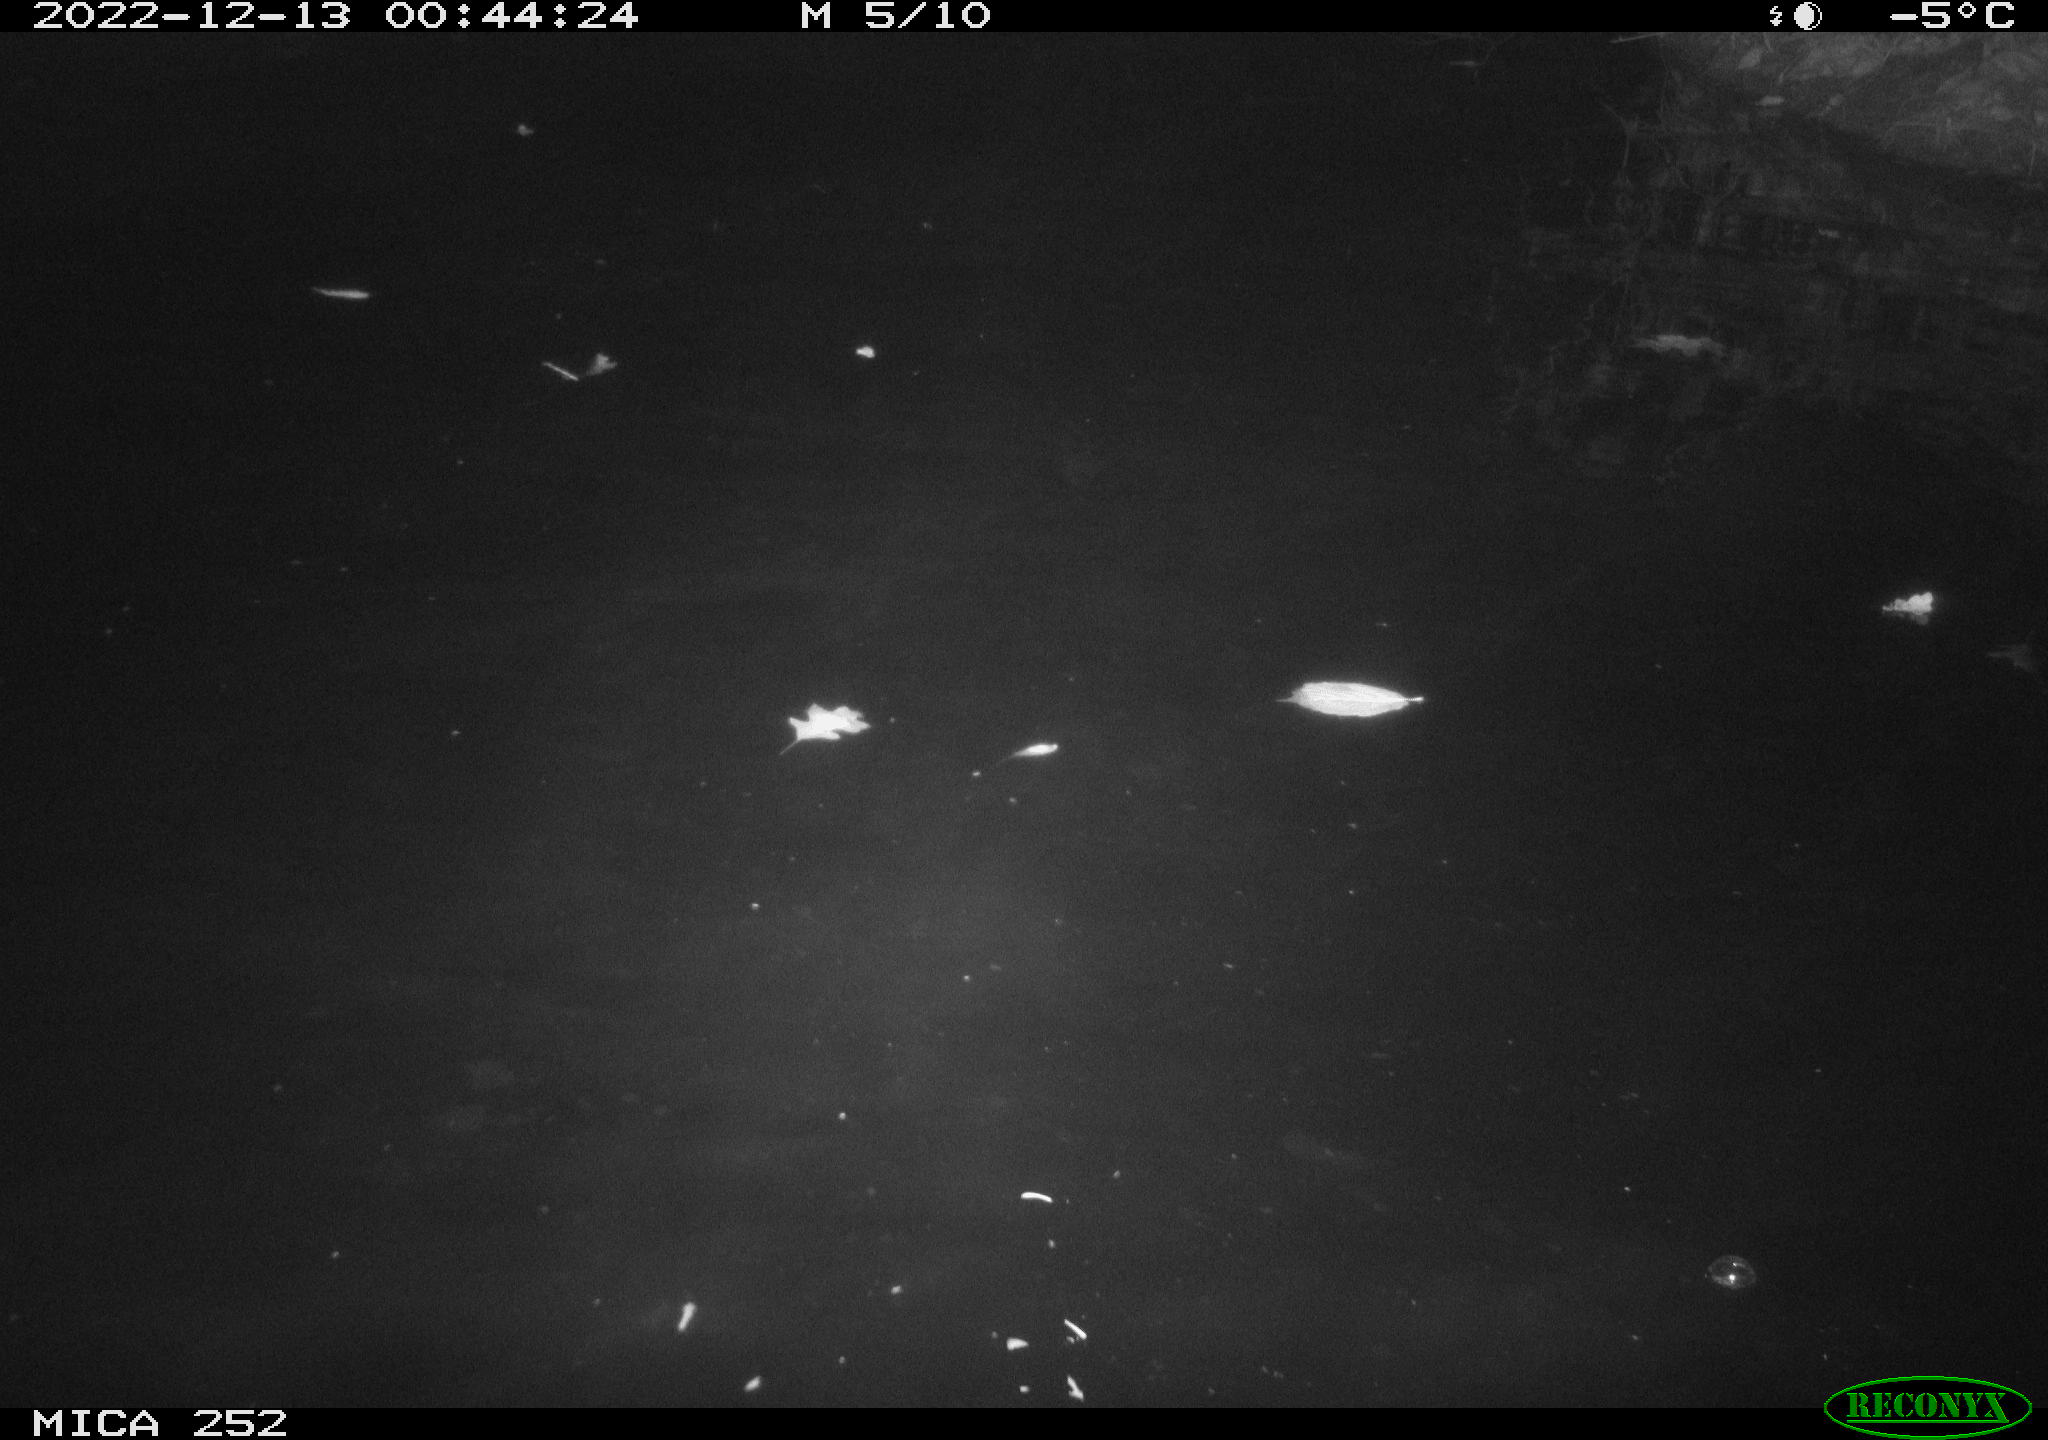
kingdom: Animalia
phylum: Chordata
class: Mammalia
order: Rodentia
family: Castoridae
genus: Castor
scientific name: Castor fiber
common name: Eurasian beaver
